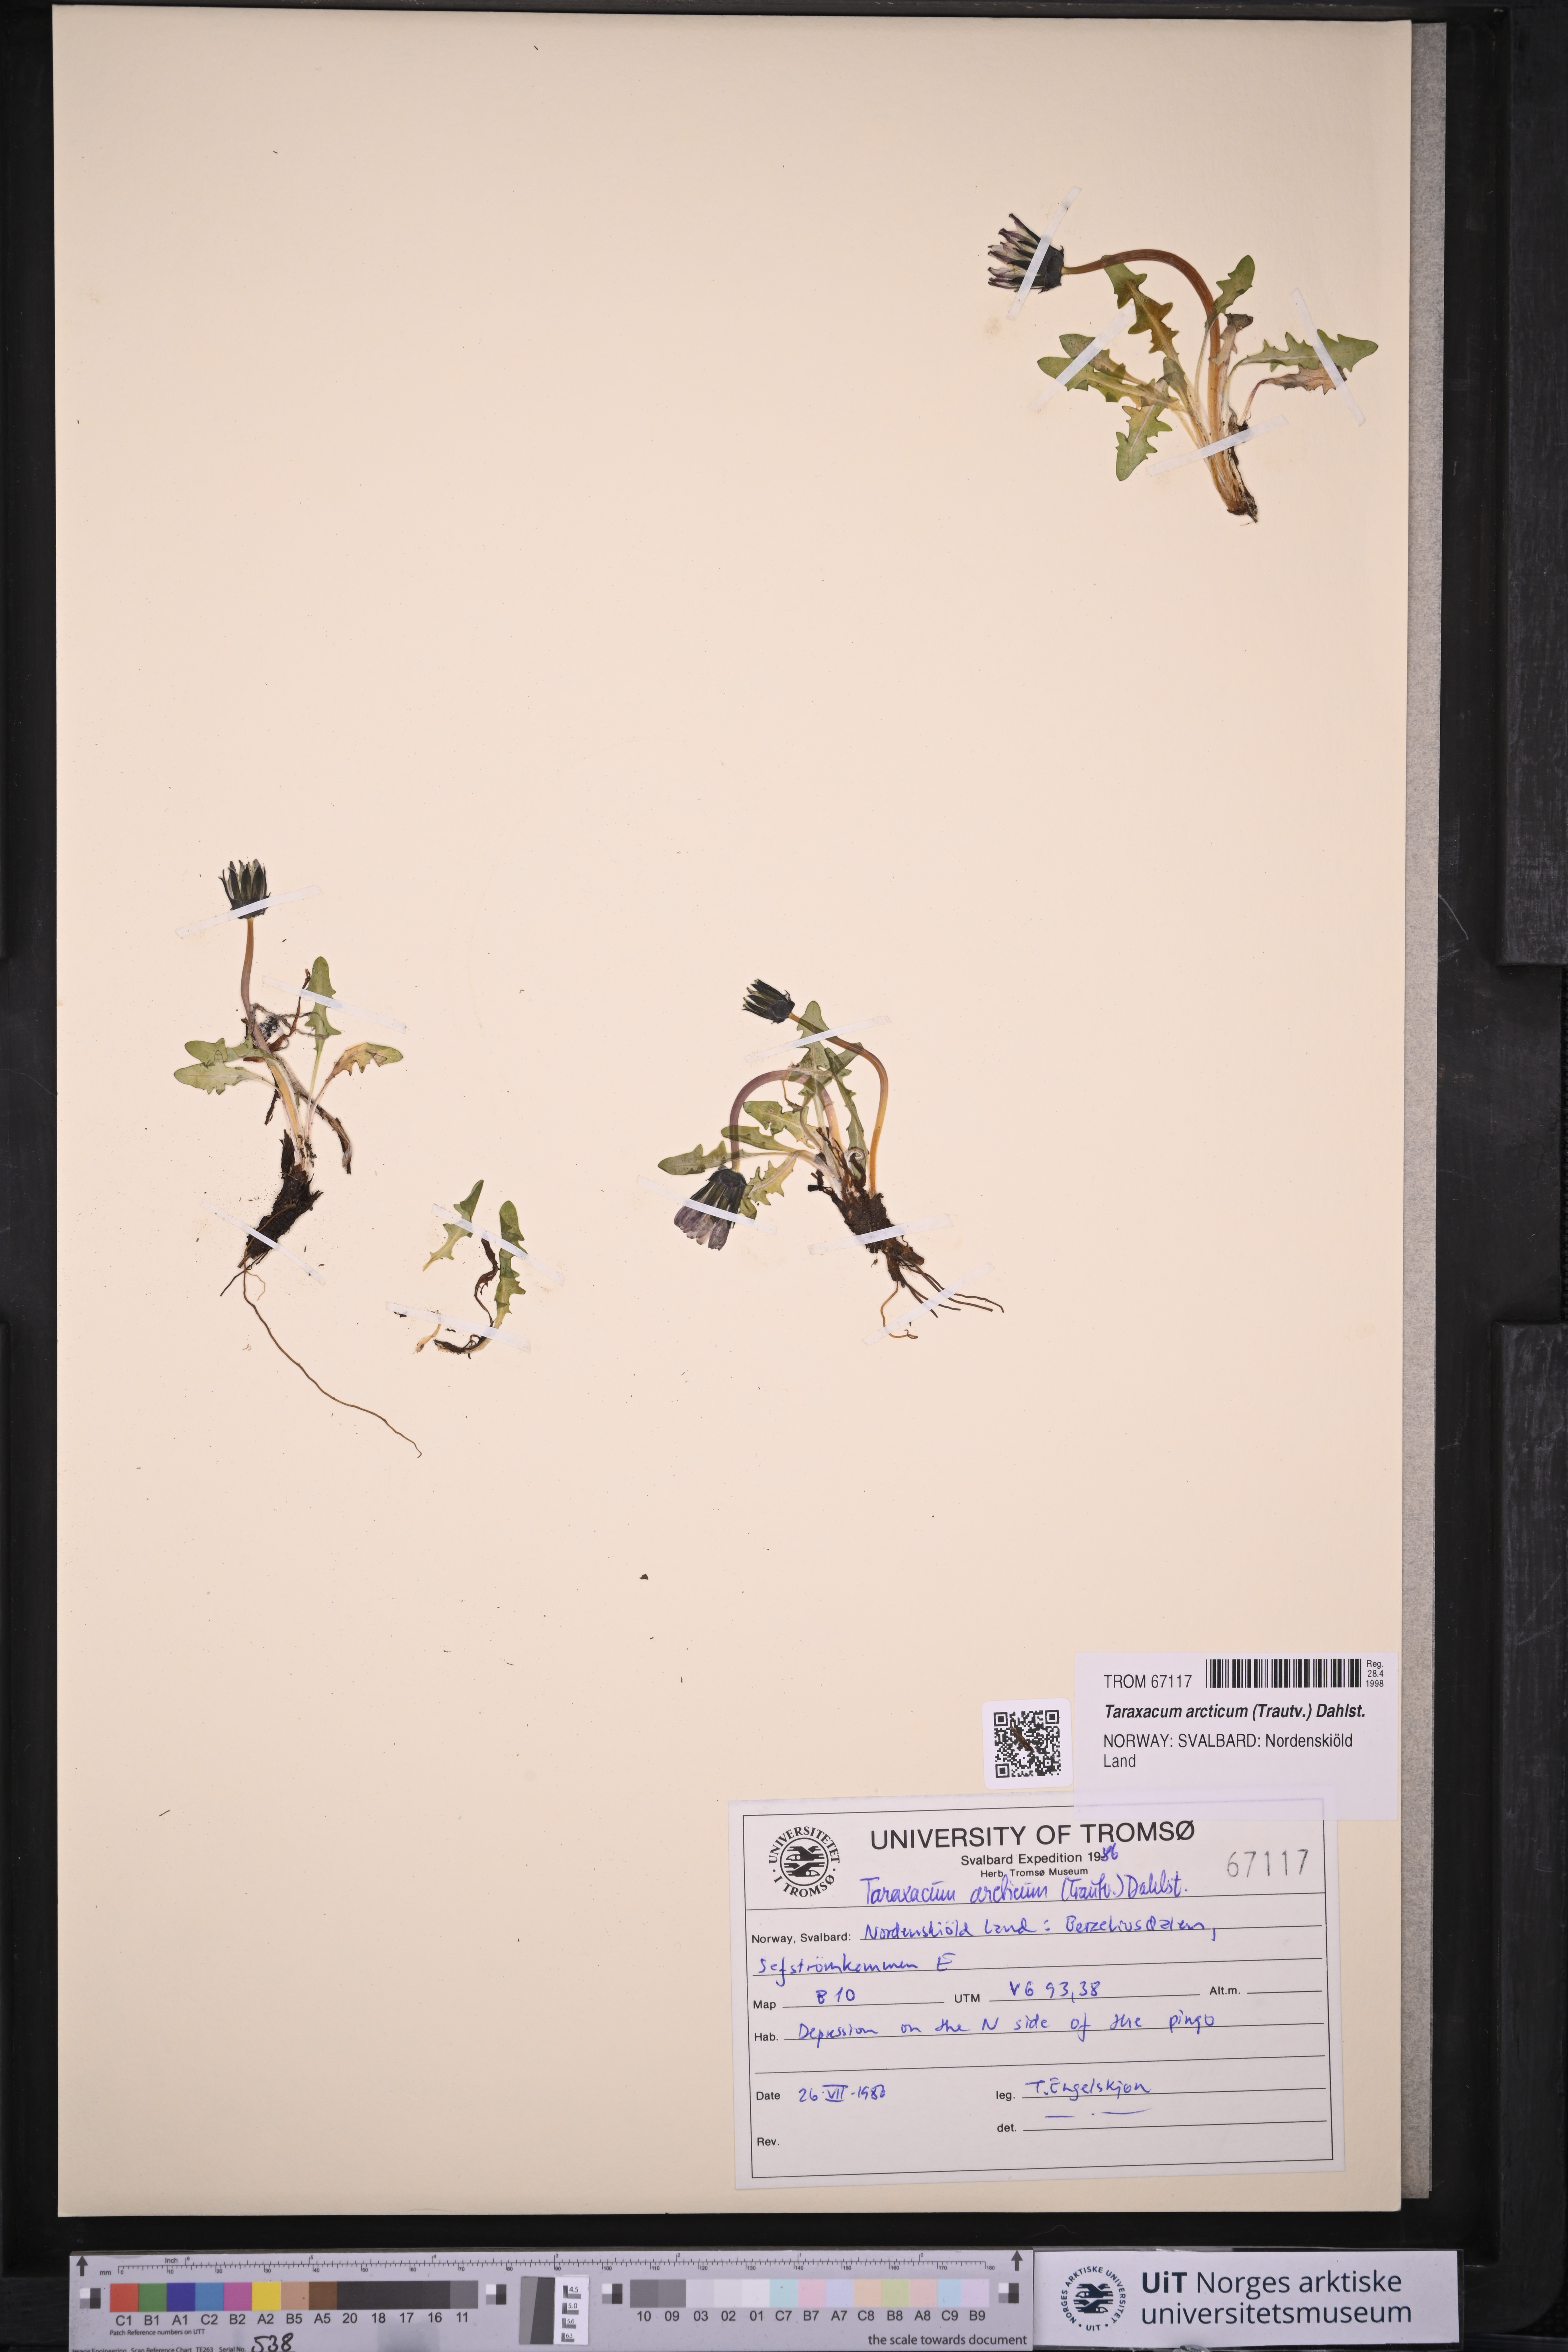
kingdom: Plantae
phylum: Tracheophyta
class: Magnoliopsida
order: Asterales
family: Asteraceae
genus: Taraxacum
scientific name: Taraxacum arcticum
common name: Arctic dandelion
